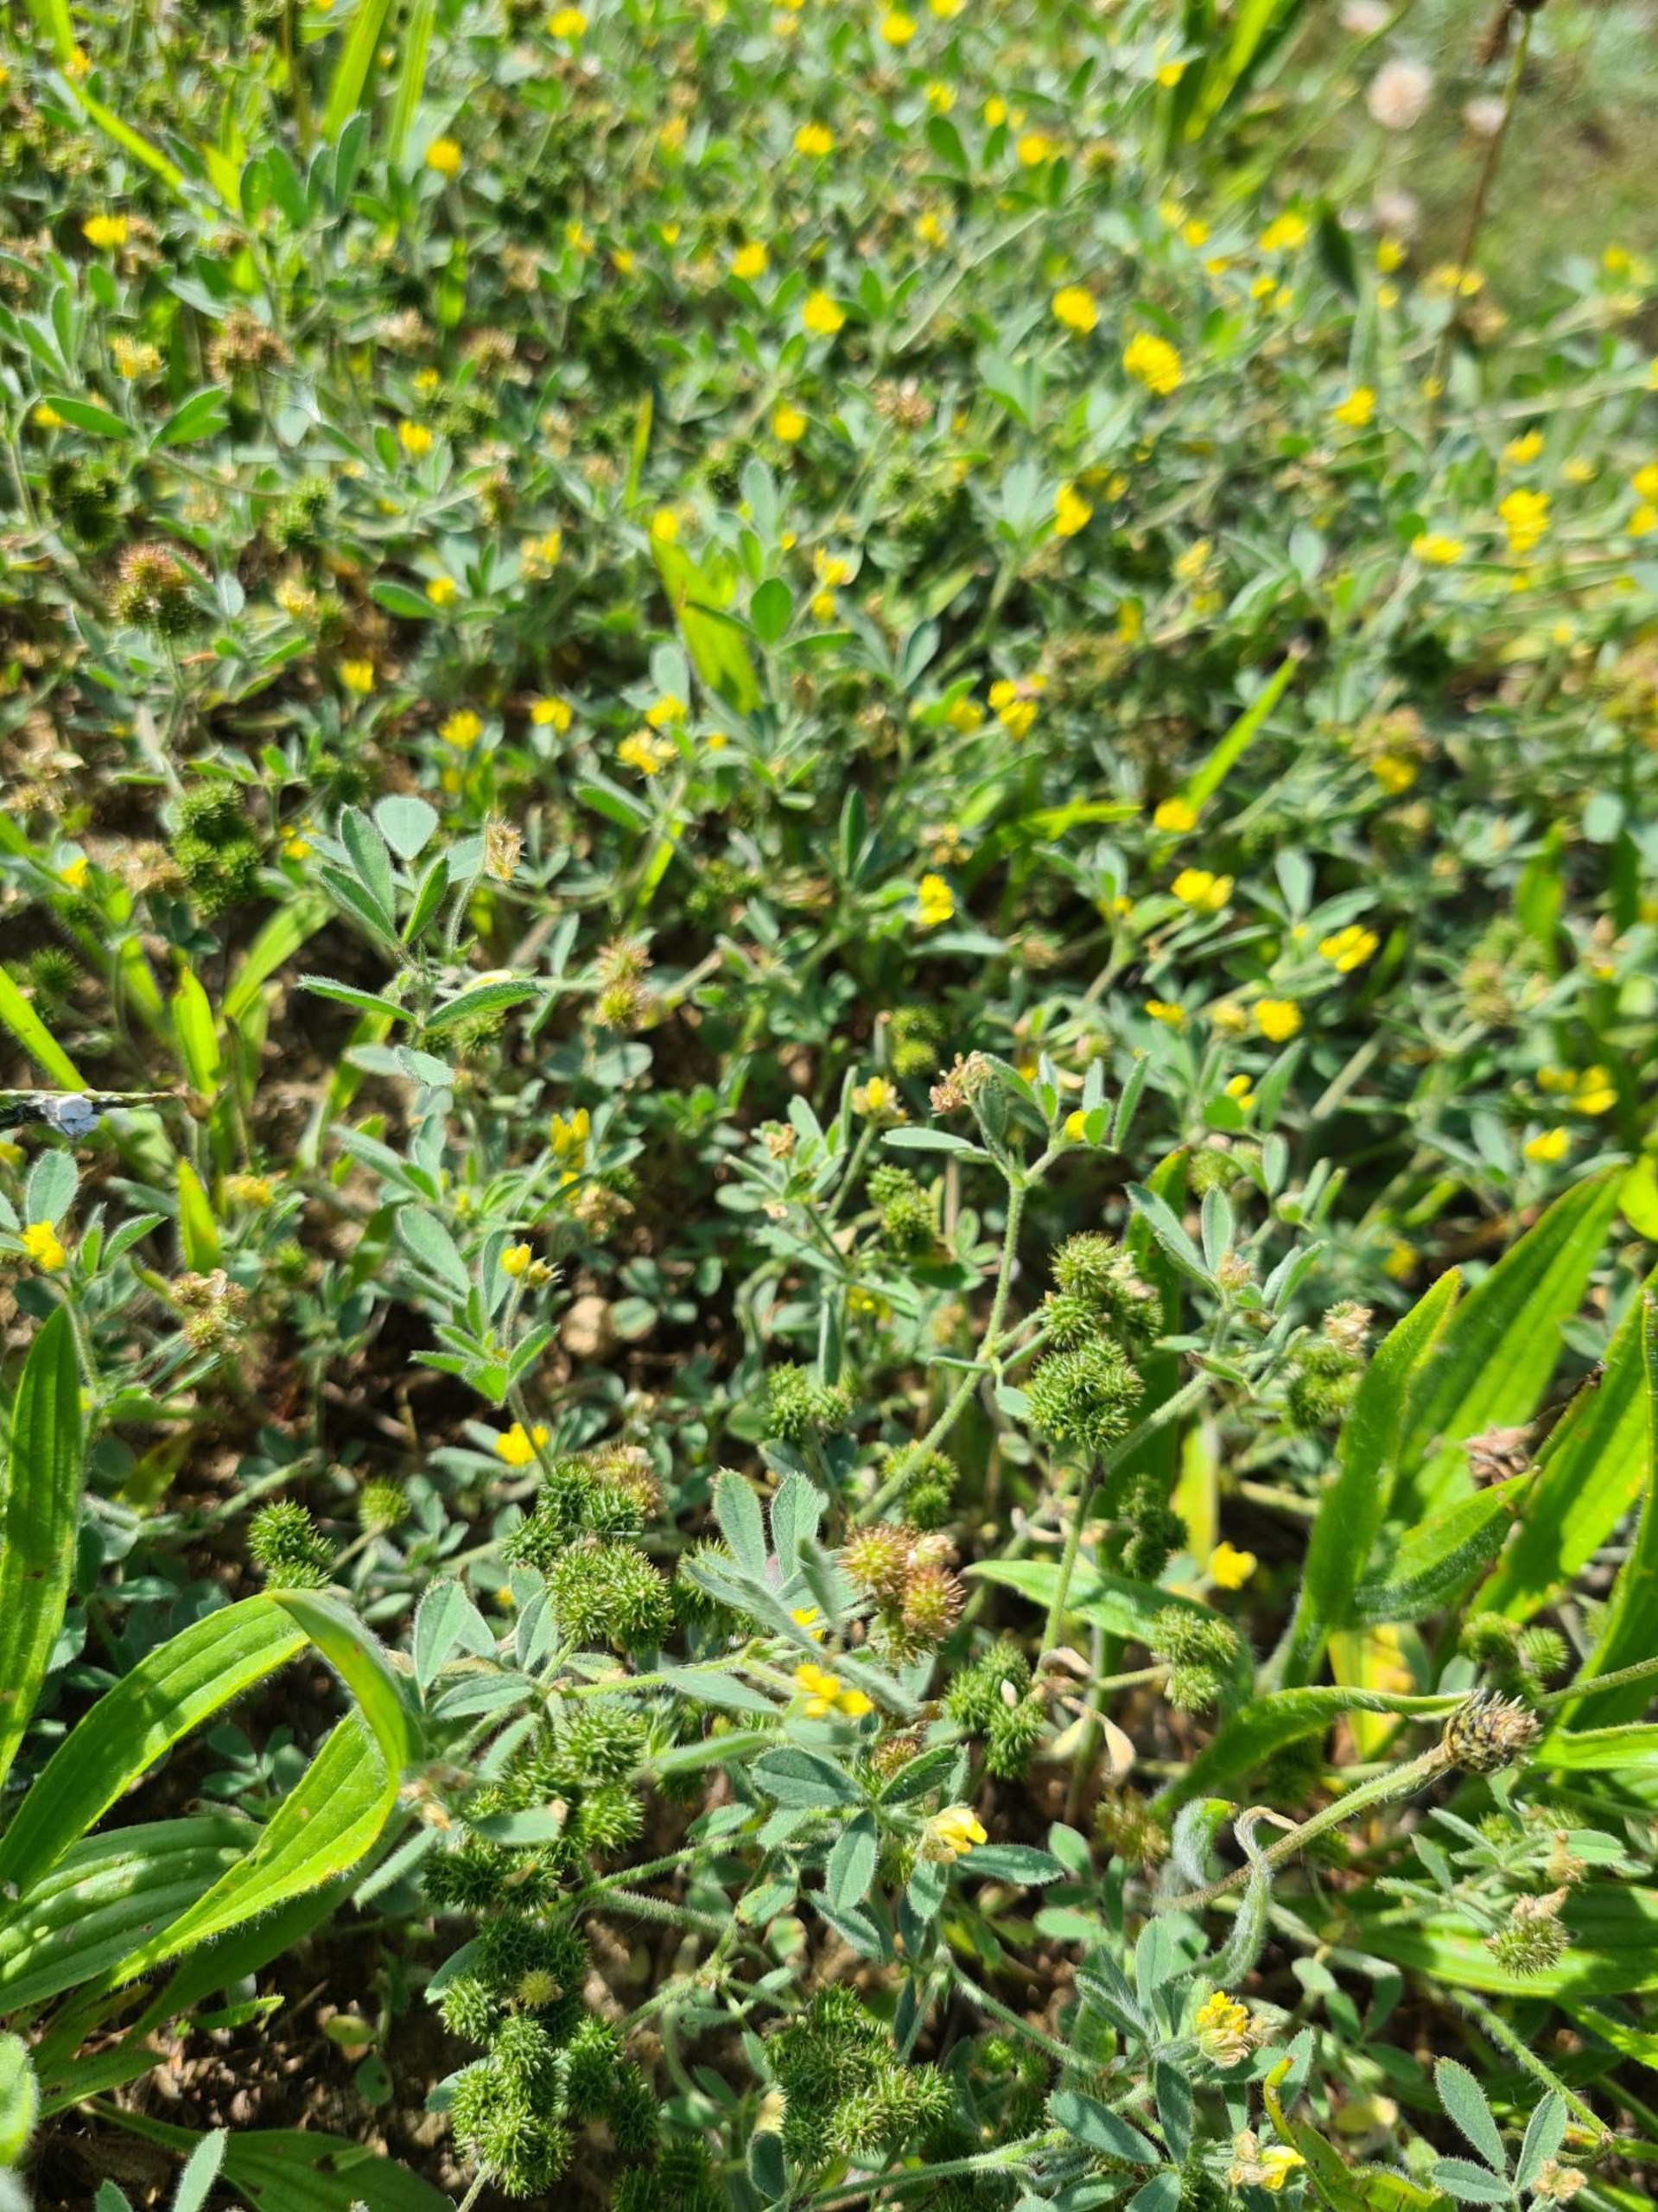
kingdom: Plantae
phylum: Tracheophyta
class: Magnoliopsida
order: Fabales
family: Fabaceae
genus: Medicago
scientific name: Medicago minima
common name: Liden sneglebælg
